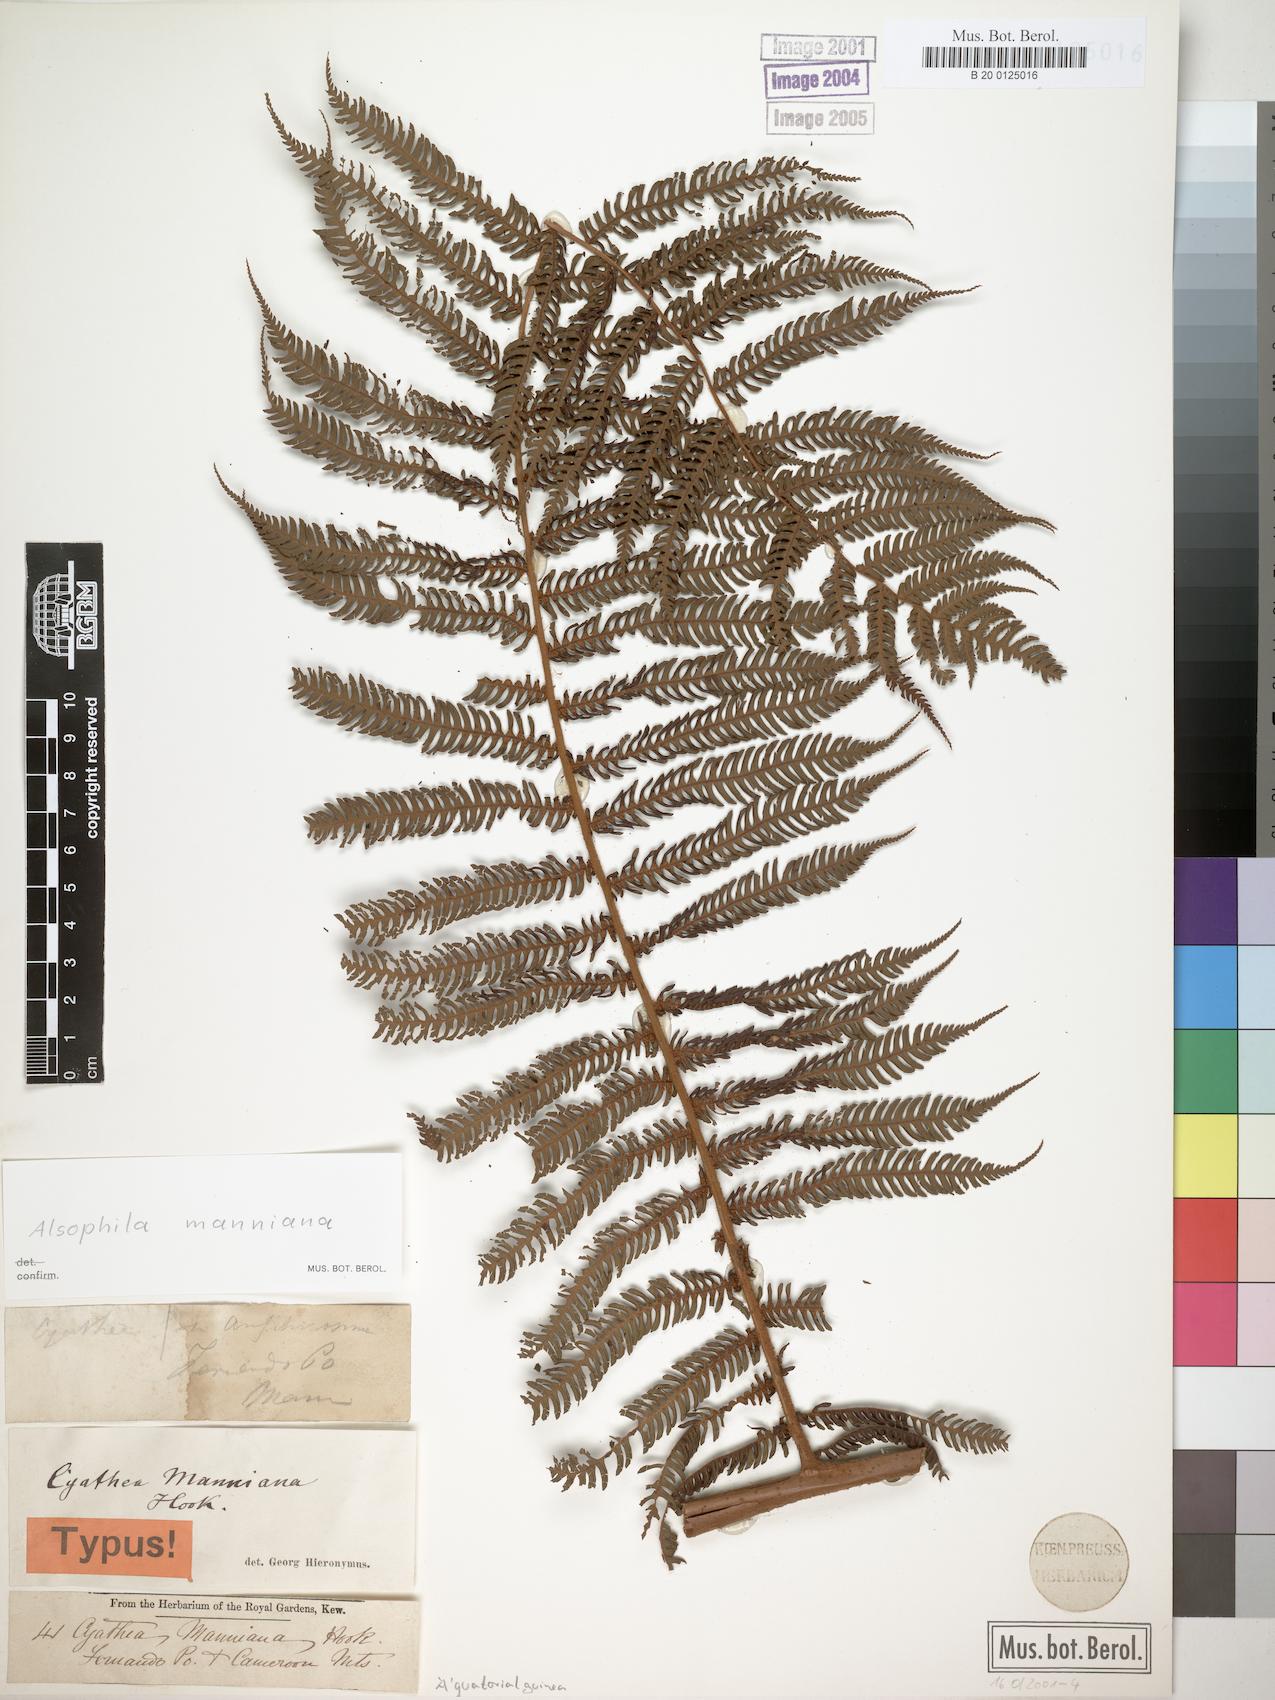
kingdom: Plantae
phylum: Tracheophyta
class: Polypodiopsida
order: Cyatheales
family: Cyatheaceae
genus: Alsophila
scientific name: Alsophila manniana
